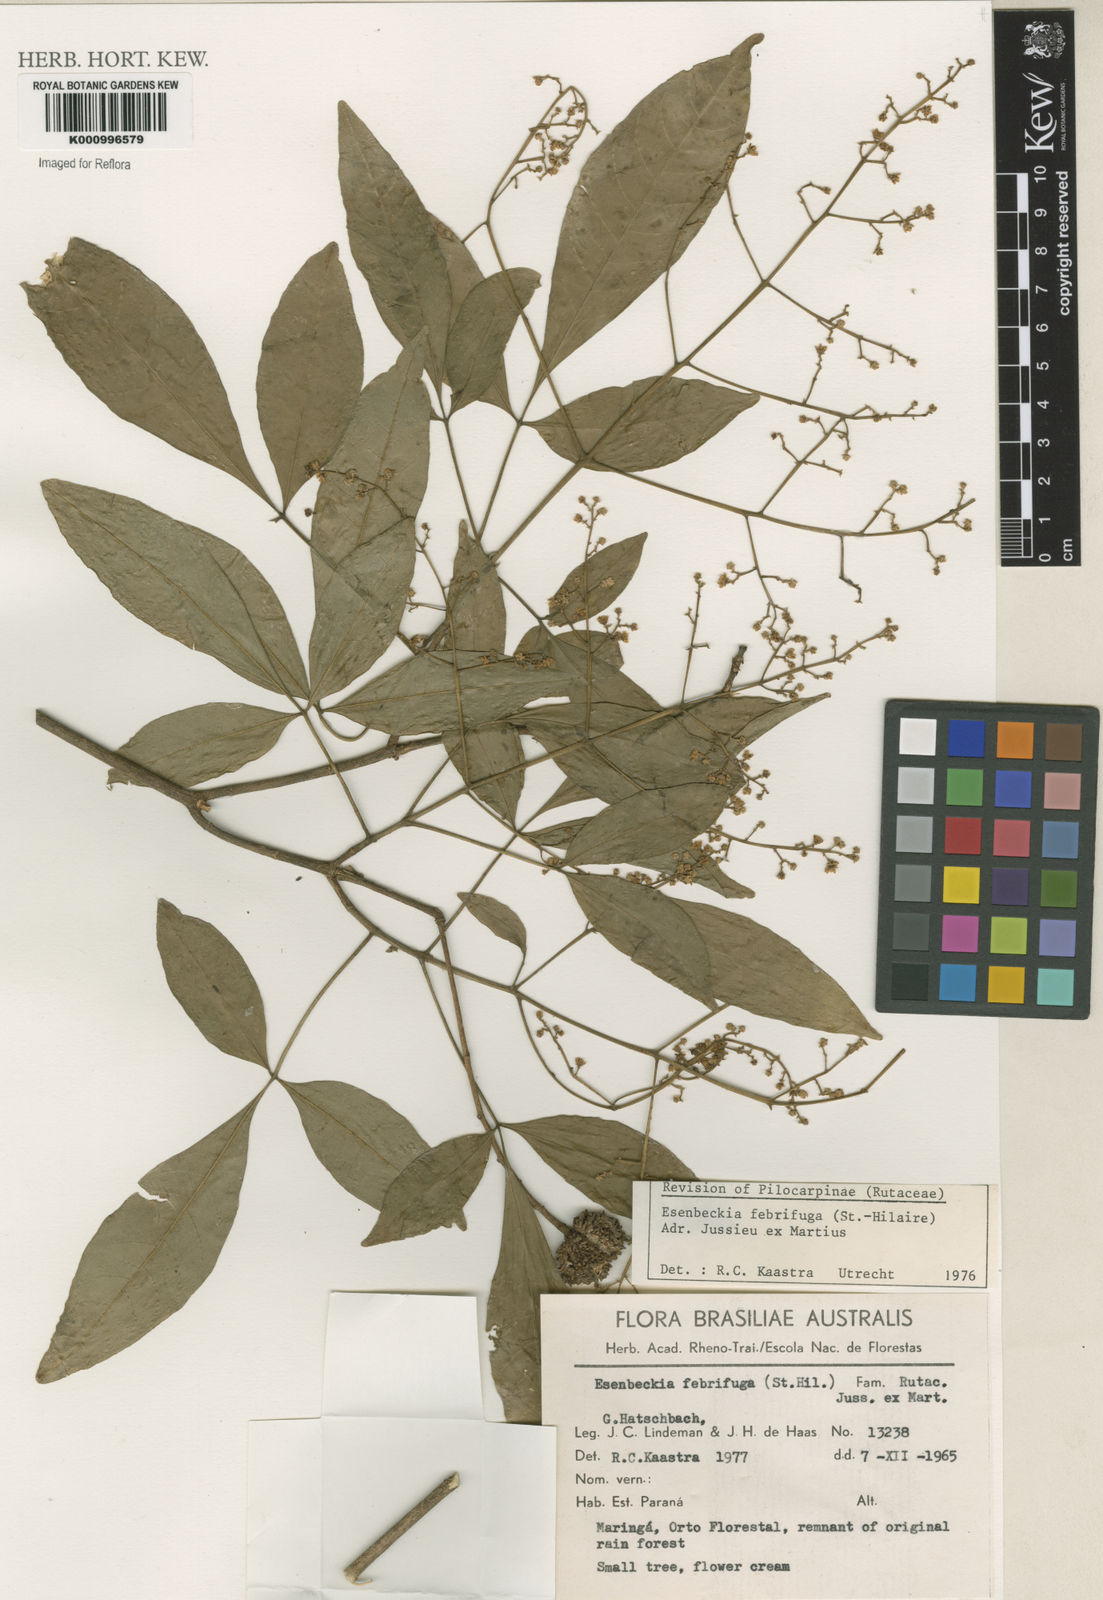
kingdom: Plantae
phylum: Tracheophyta
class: Magnoliopsida
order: Sapindales
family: Rutaceae
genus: Esenbeckia
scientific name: Esenbeckia febrifuga
